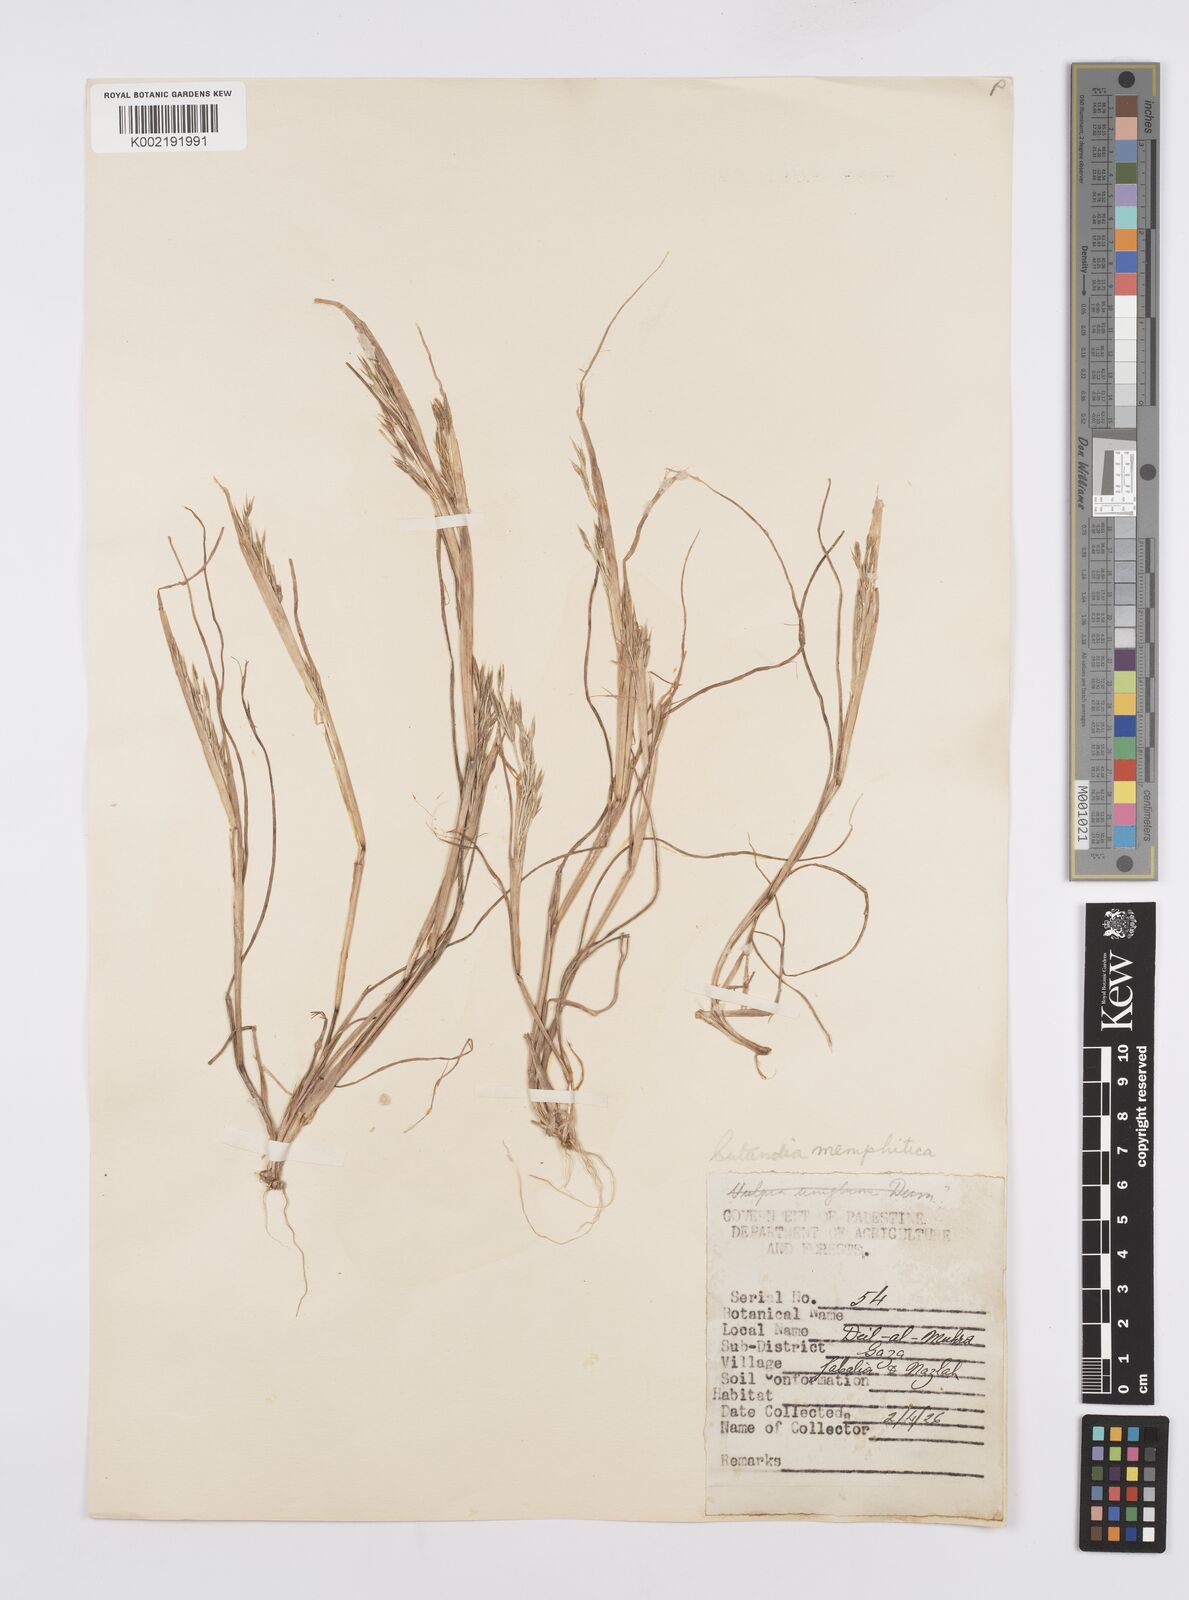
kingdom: Plantae
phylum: Tracheophyta
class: Liliopsida
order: Poales
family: Poaceae
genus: Cutandia
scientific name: Cutandia memphitica
